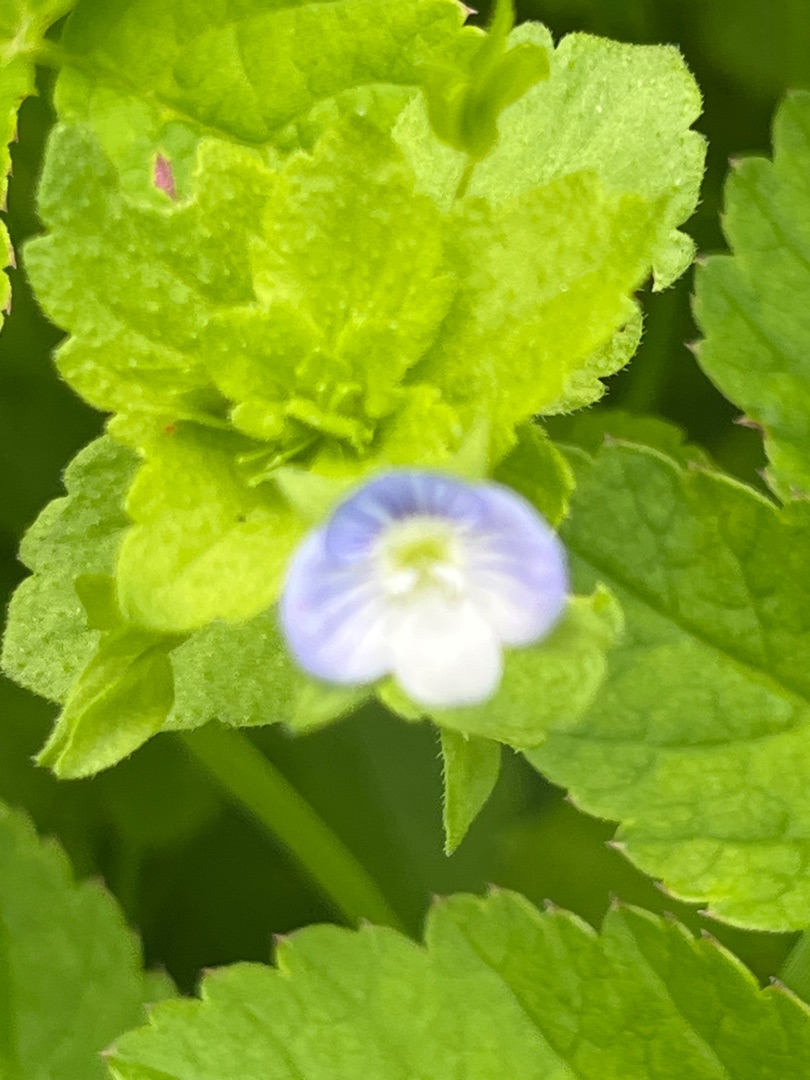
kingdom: Plantae
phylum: Tracheophyta
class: Magnoliopsida
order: Lamiales
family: Plantaginaceae
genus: Veronica
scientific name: Veronica persica
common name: Storkronet ærenpris
